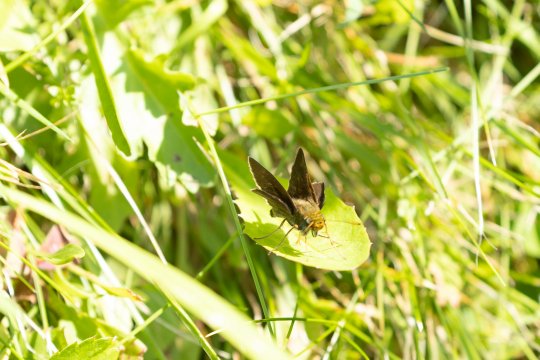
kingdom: Animalia
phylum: Arthropoda
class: Insecta
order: Lepidoptera
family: Hesperiidae
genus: Euphyes
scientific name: Euphyes vestris
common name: Dun Skipper
